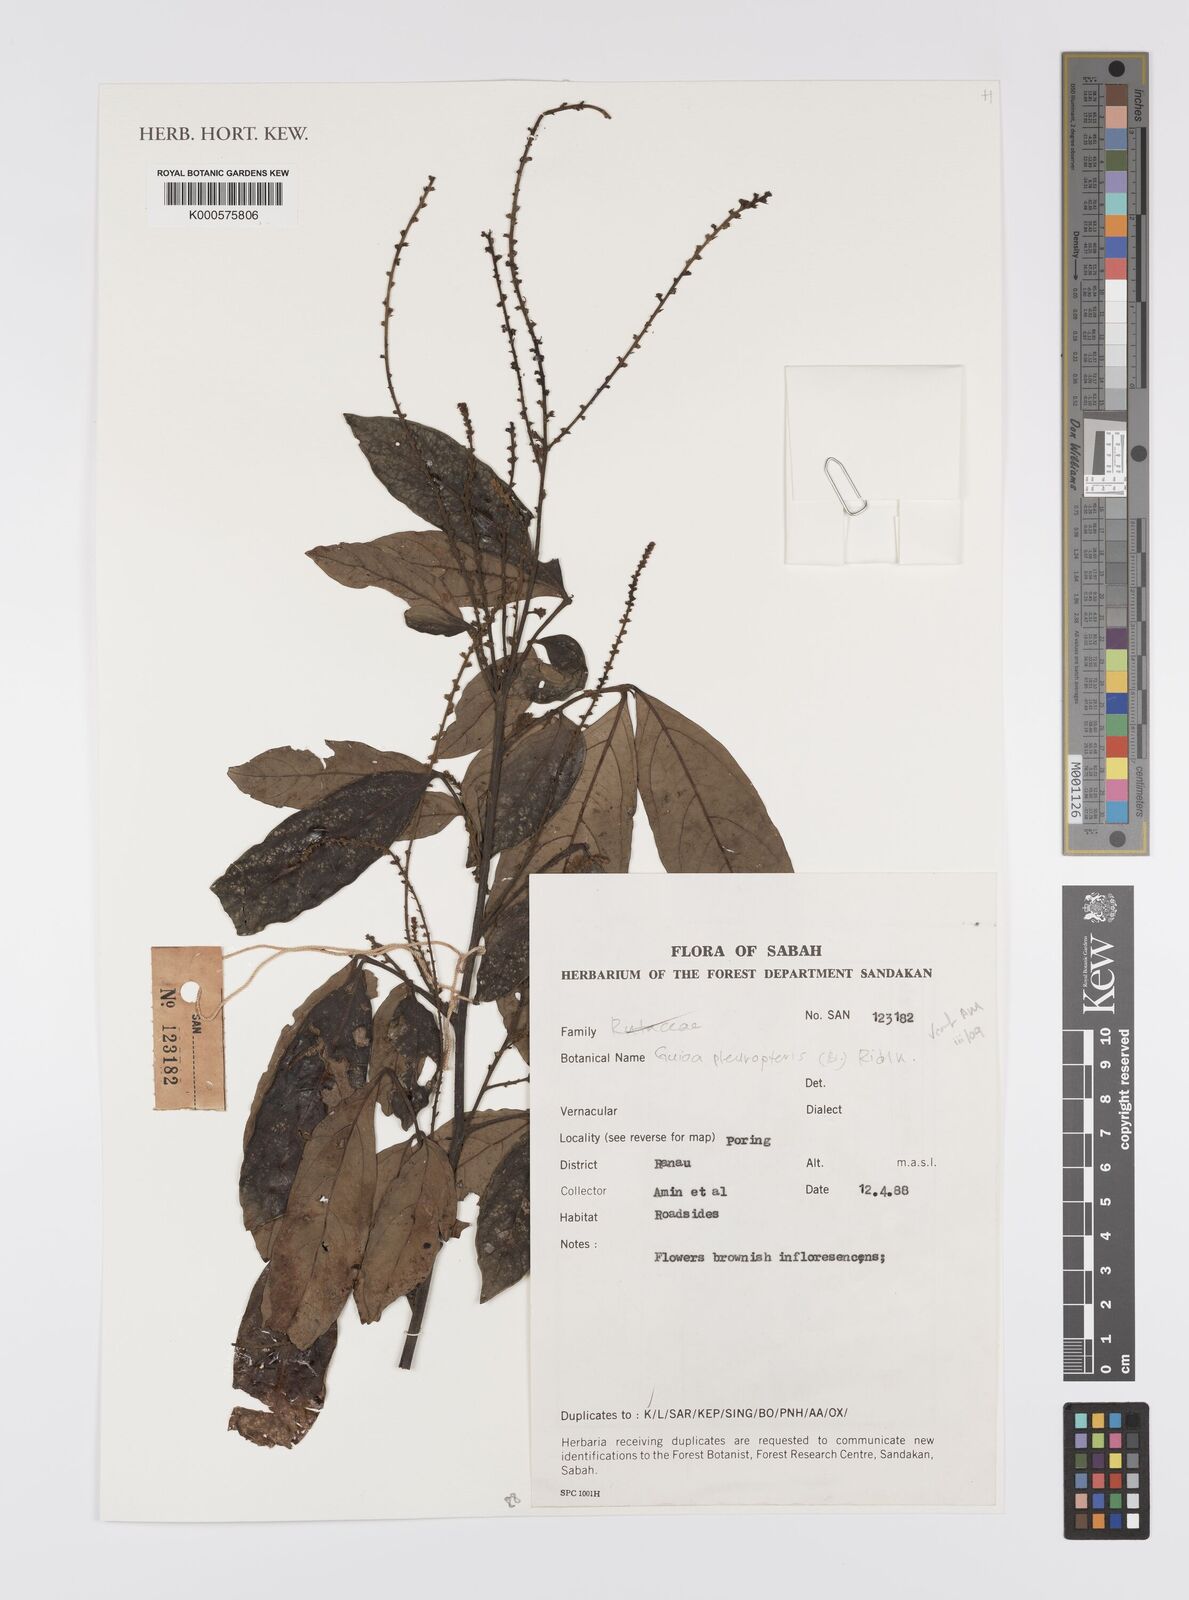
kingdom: Plantae
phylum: Tracheophyta
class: Magnoliopsida
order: Sapindales
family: Sapindaceae
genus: Guioa
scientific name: Guioa pleuropteris
